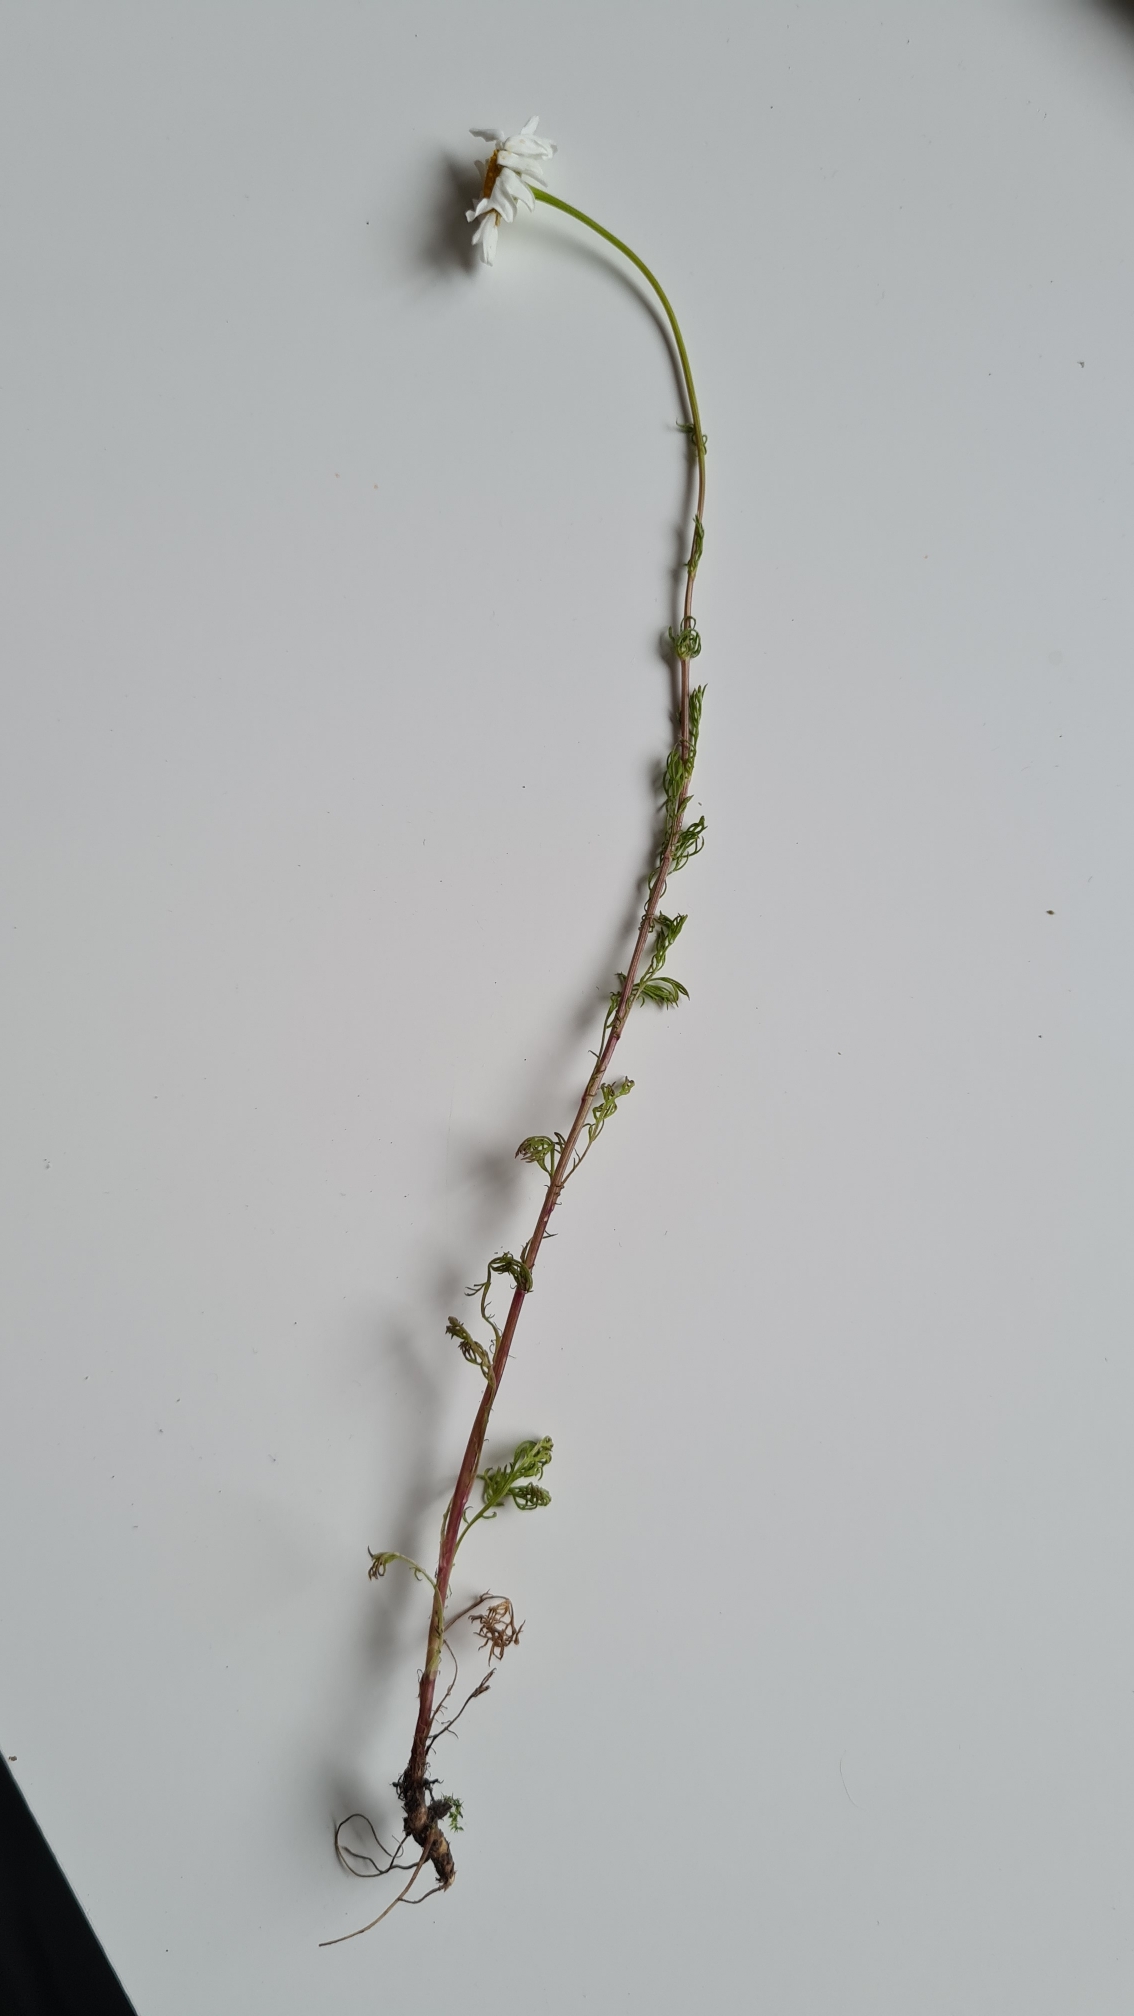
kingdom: Plantae
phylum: Tracheophyta
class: Magnoliopsida
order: Asterales
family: Asteraceae
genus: Tripleurospermum
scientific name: Tripleurospermum inodorum
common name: Lugtløs kamille
